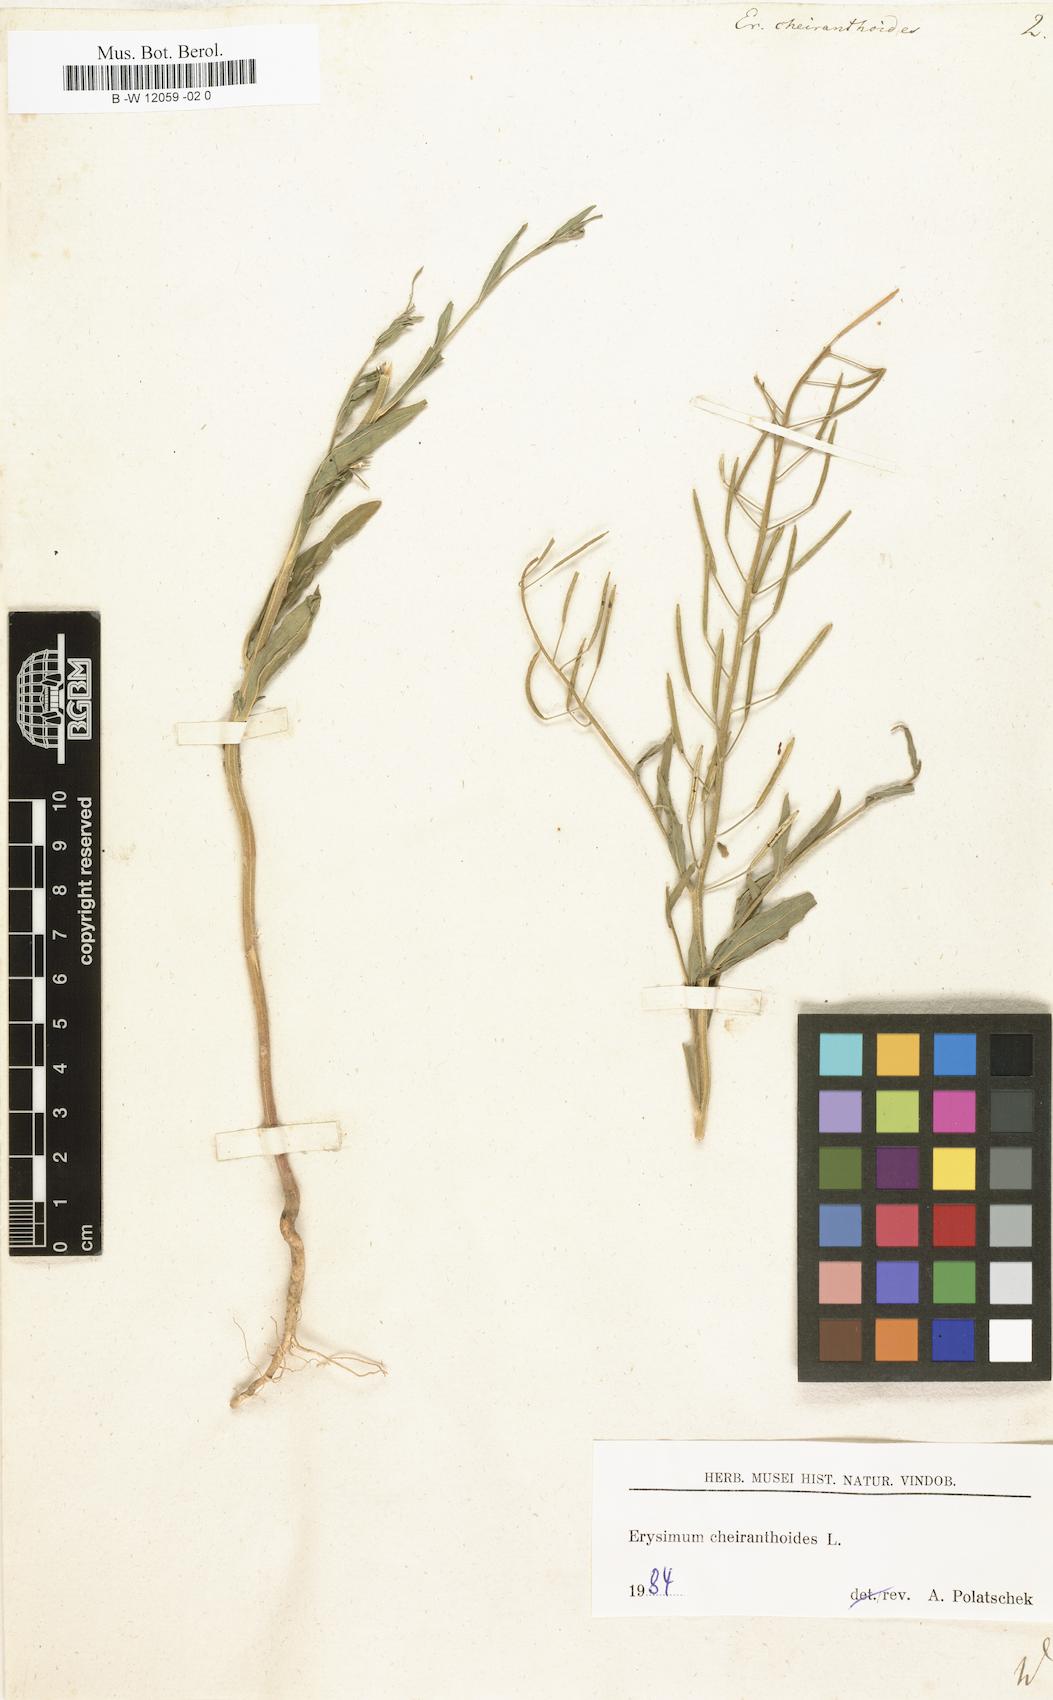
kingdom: Plantae
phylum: Tracheophyta
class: Magnoliopsida
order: Brassicales
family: Brassicaceae
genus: Erysimum
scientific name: Erysimum cheiranthoides
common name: Treacle mustard
